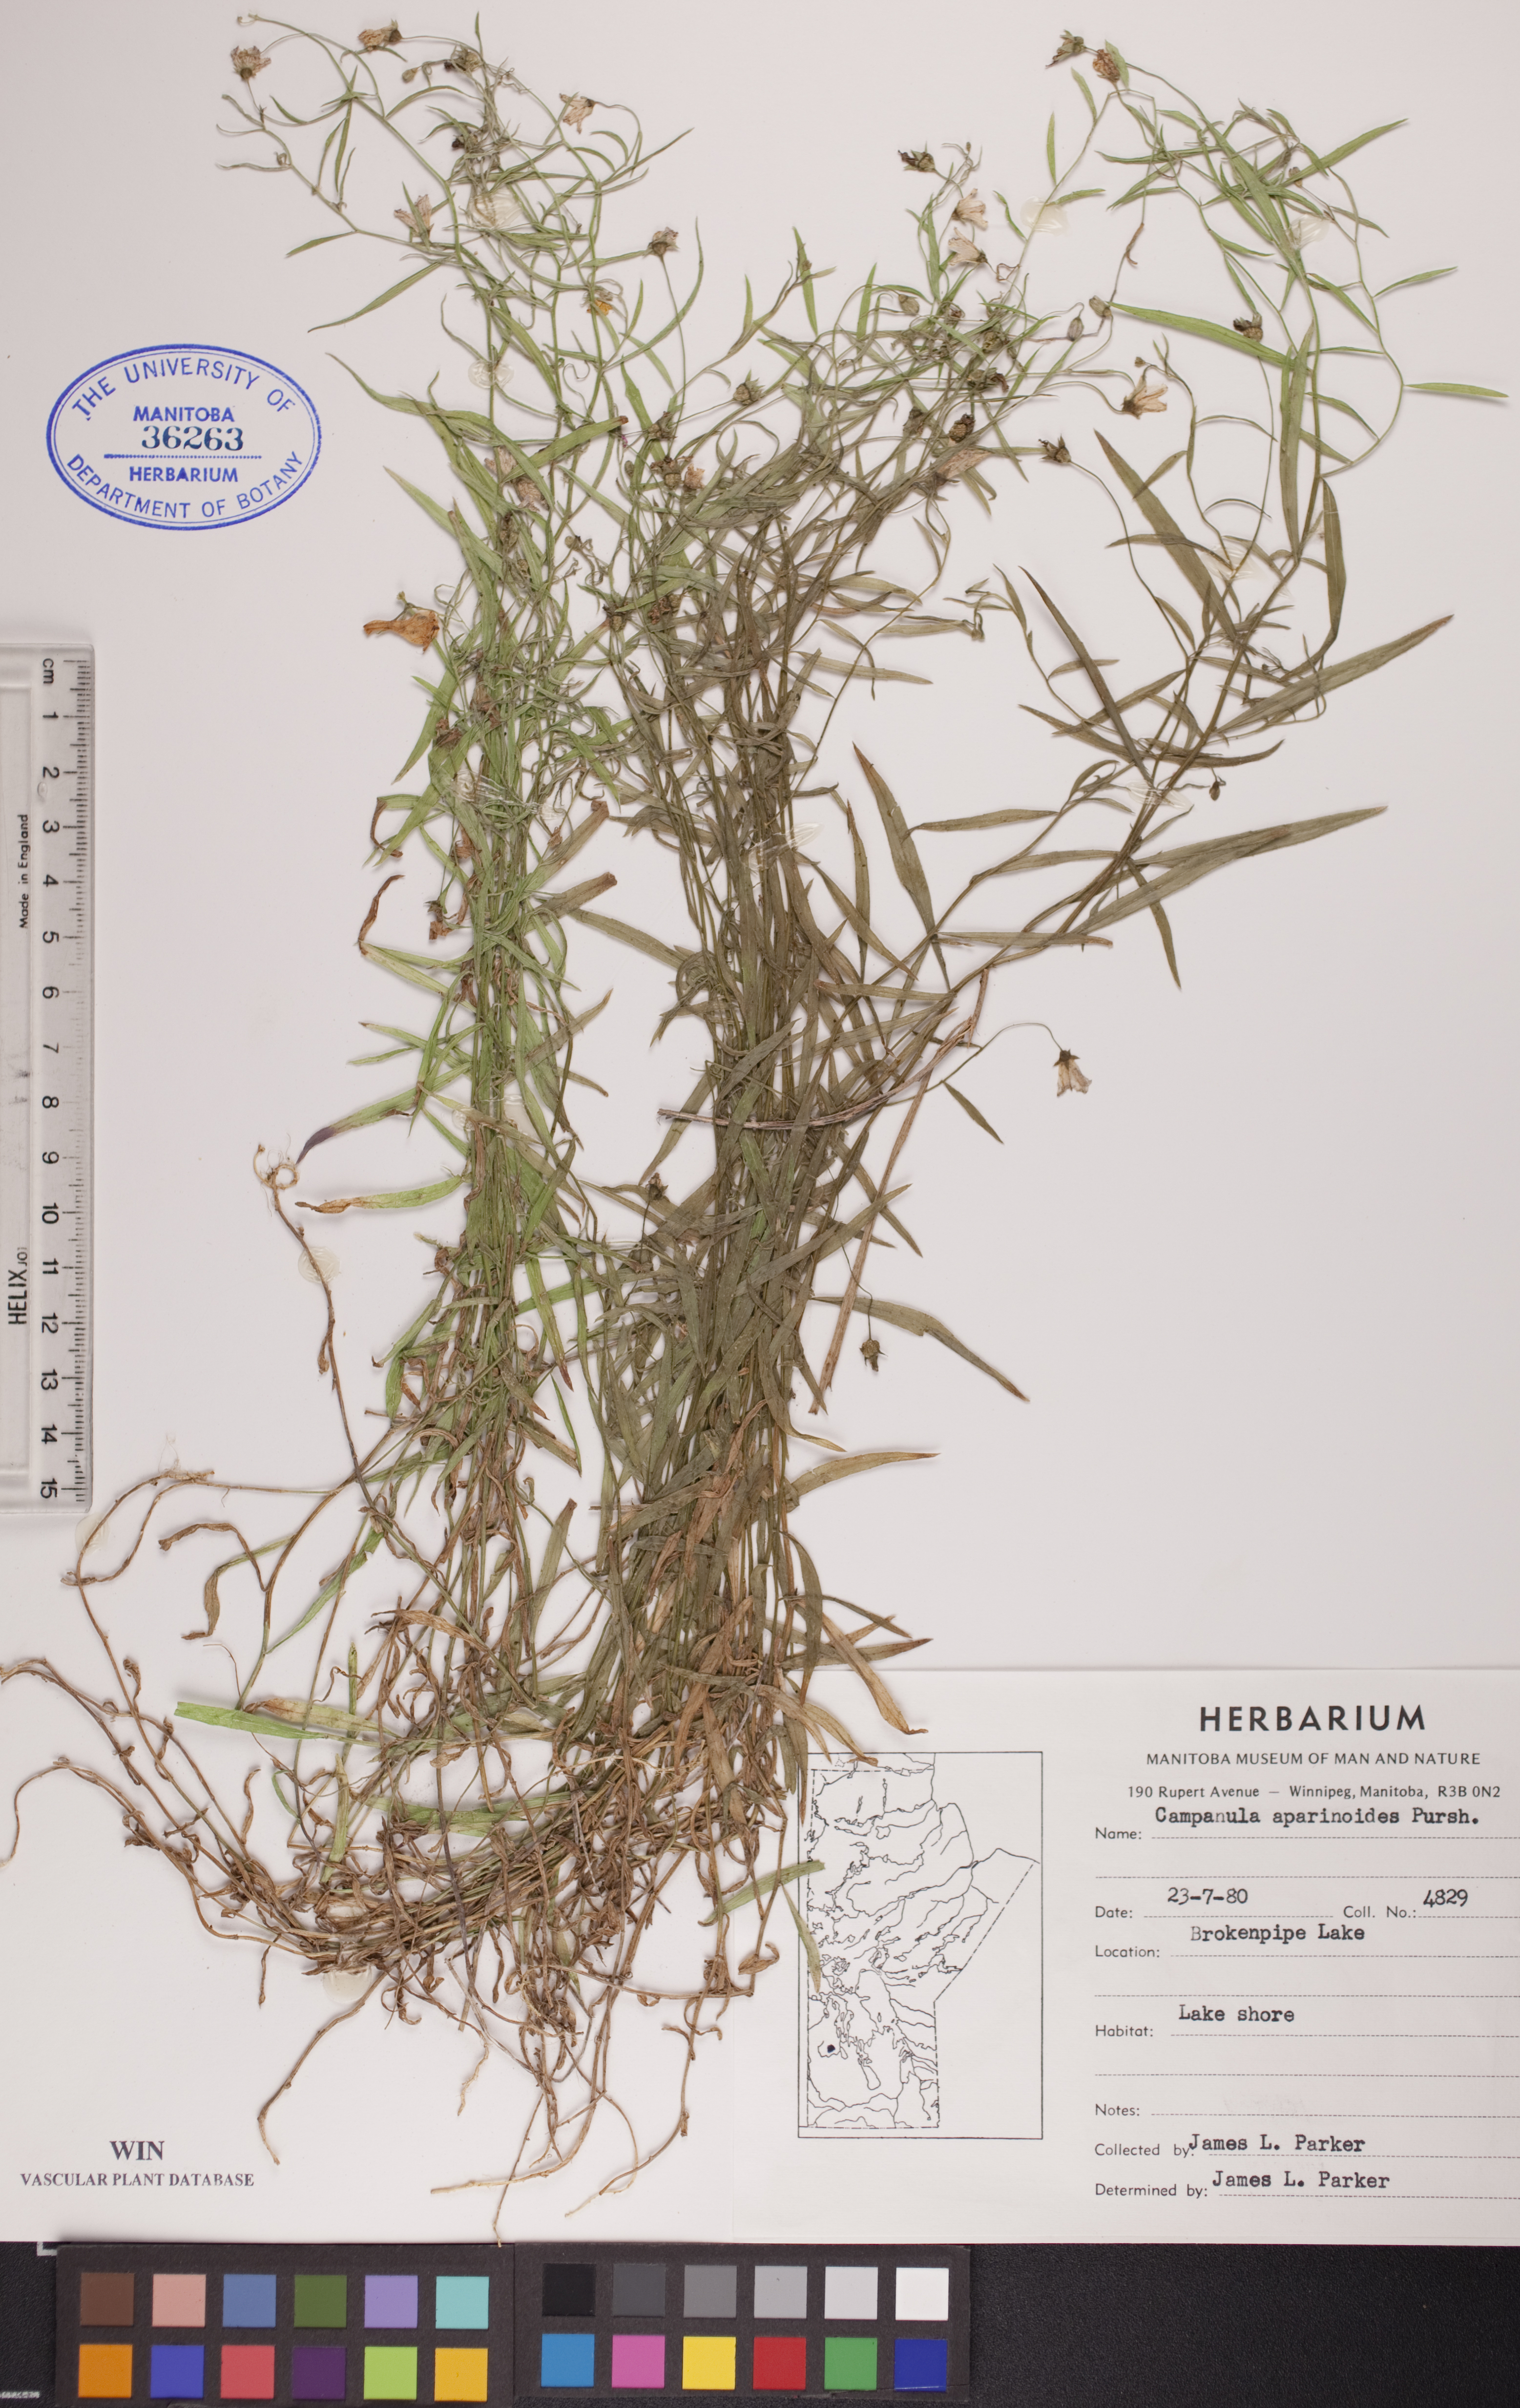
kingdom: Plantae
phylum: Tracheophyta
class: Magnoliopsida
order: Asterales
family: Campanulaceae
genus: Palustricodon
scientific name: Palustricodon aparinoides
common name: Bedstraw bellflower
